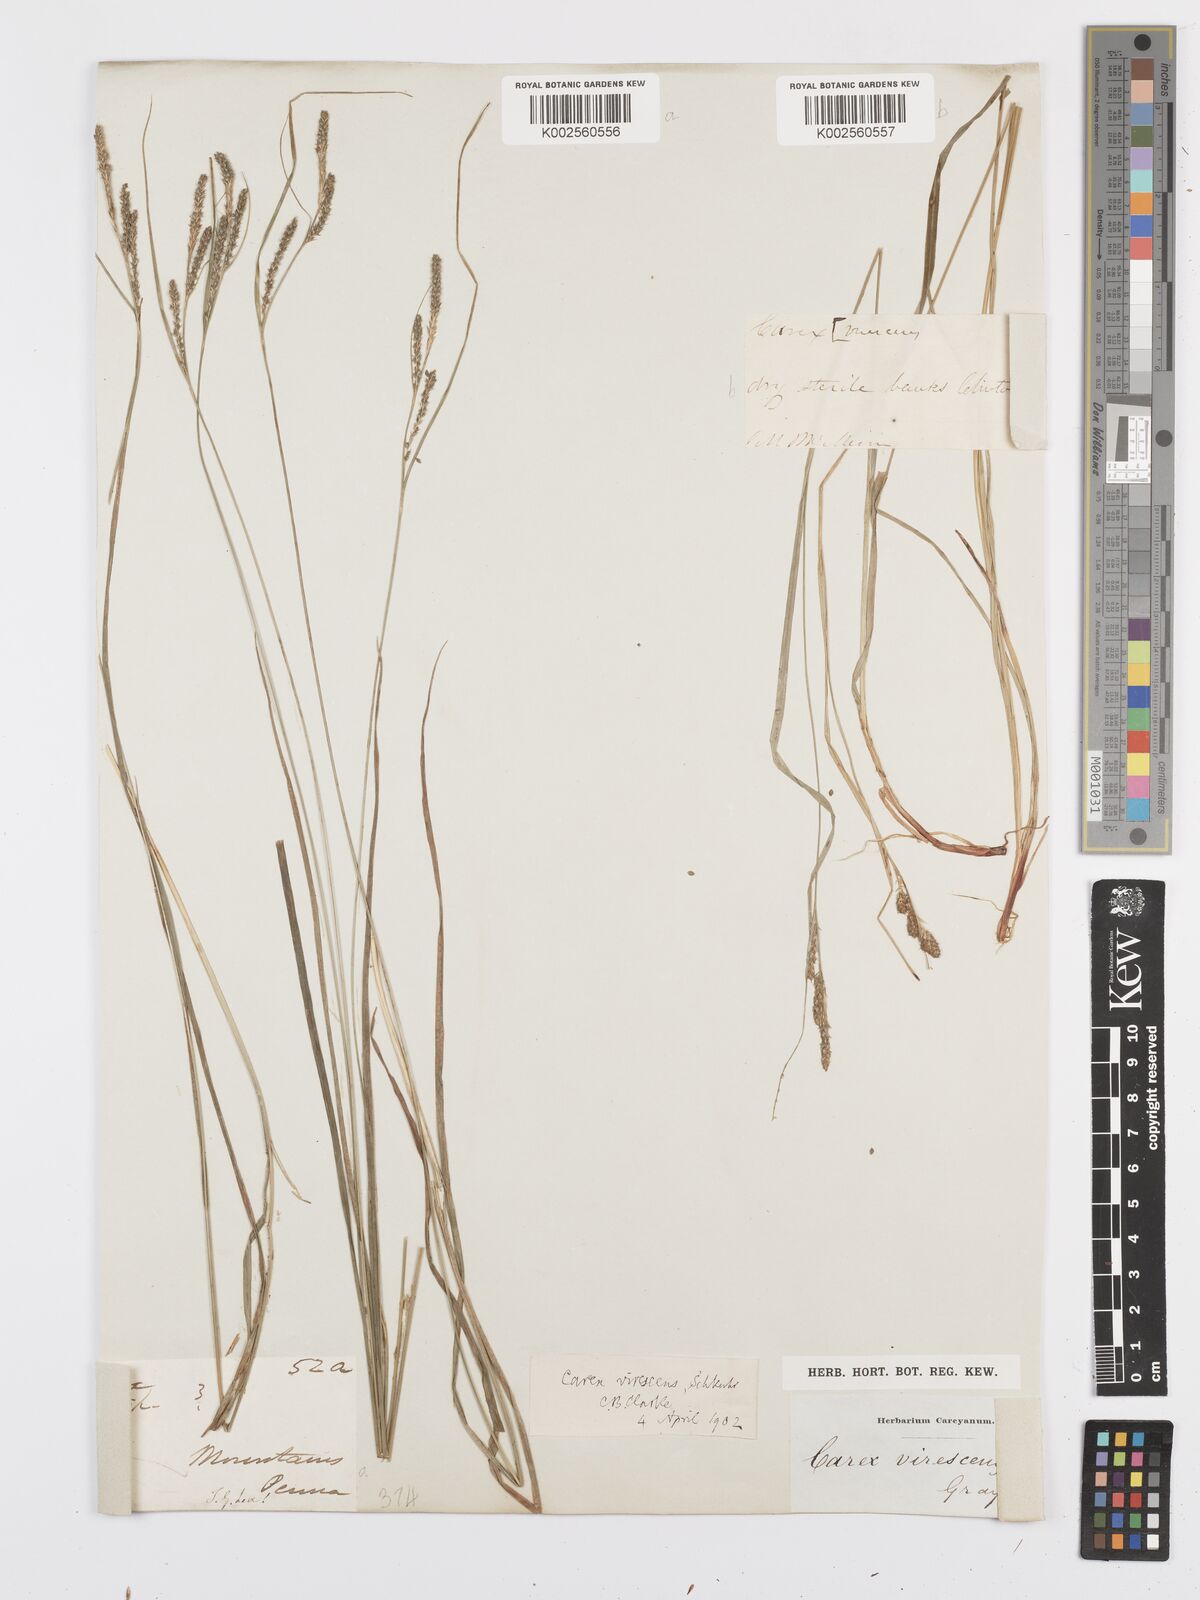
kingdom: Plantae
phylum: Tracheophyta
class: Liliopsida
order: Poales
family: Cyperaceae
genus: Carex
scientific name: Carex virescens
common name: Ribbed sedge
